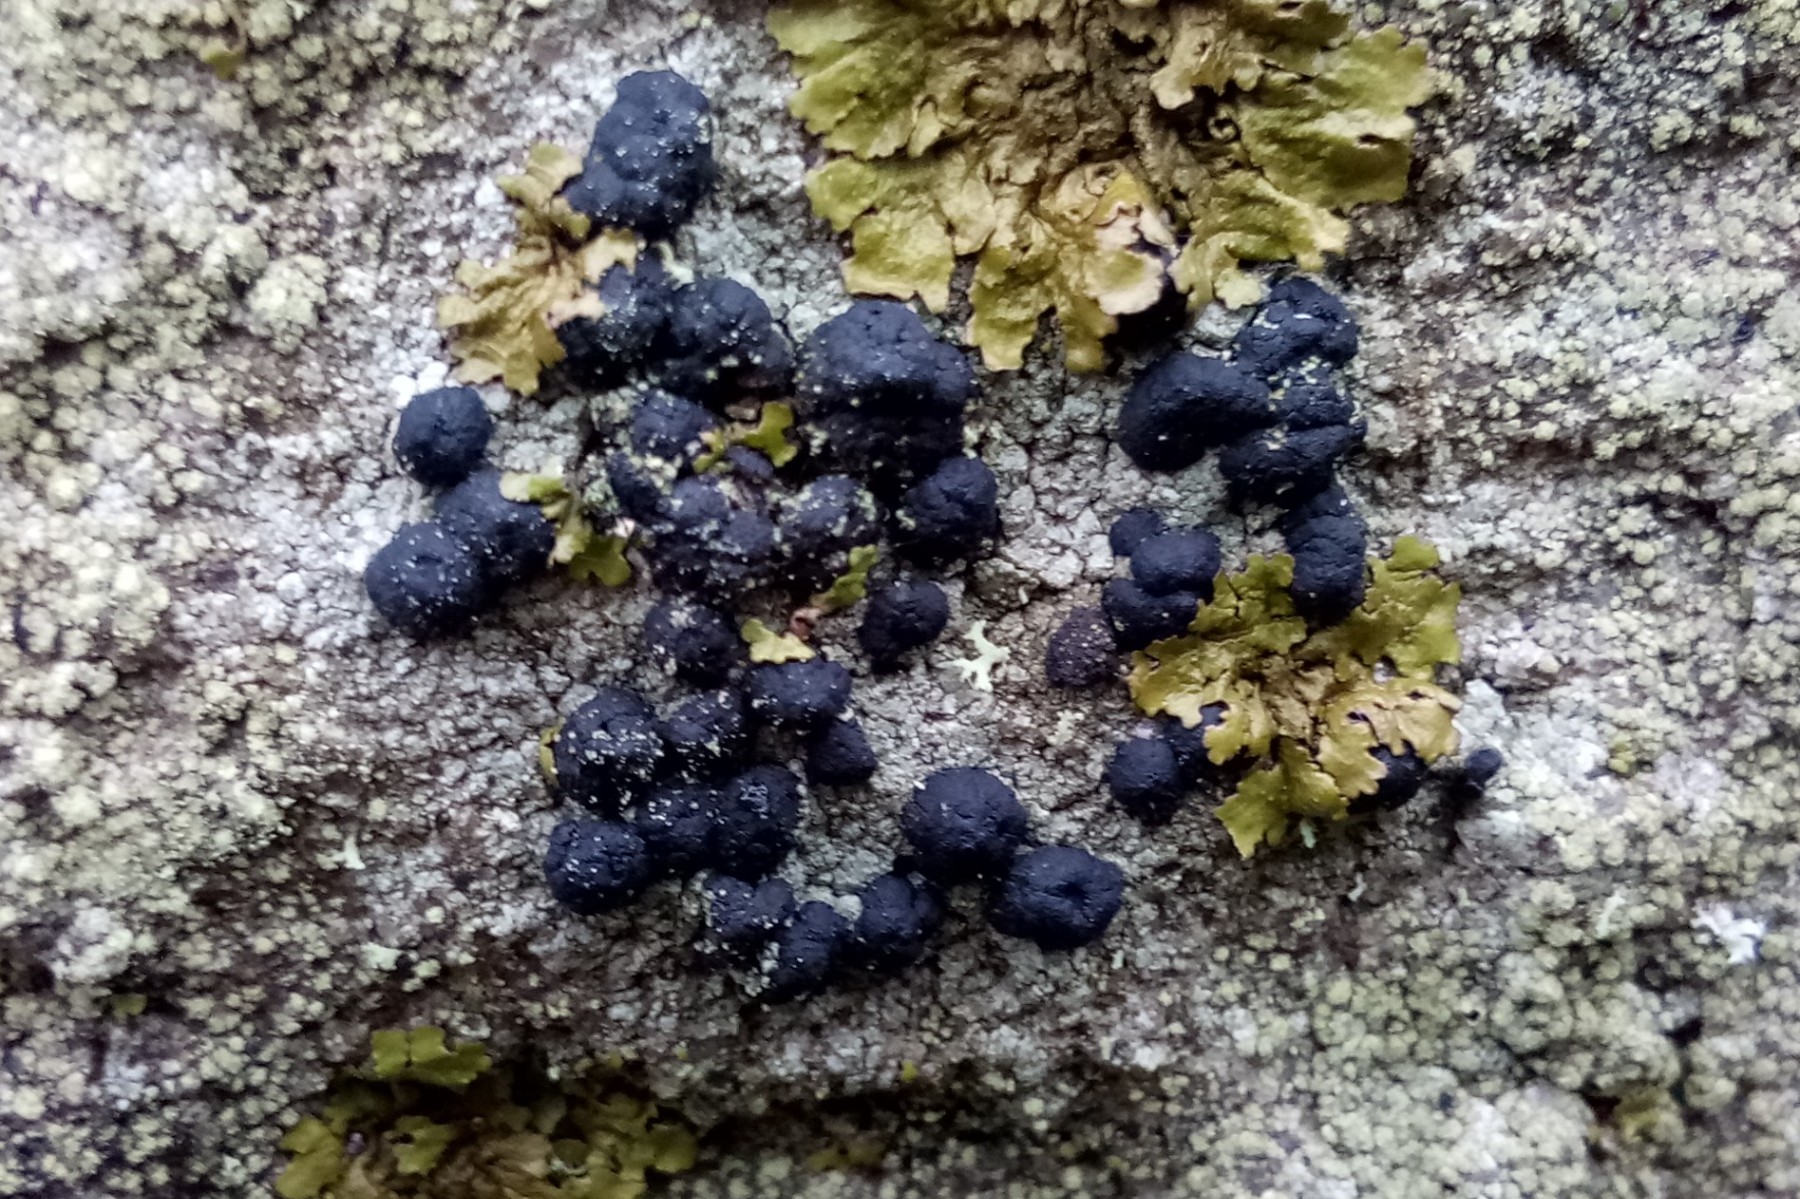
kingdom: Fungi
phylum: Ascomycota
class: Lecanoromycetes
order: Lecanorales
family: Lecanoraceae
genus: Lecidella
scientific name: Lecidella stigmatea
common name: kalkstens-skivelav
